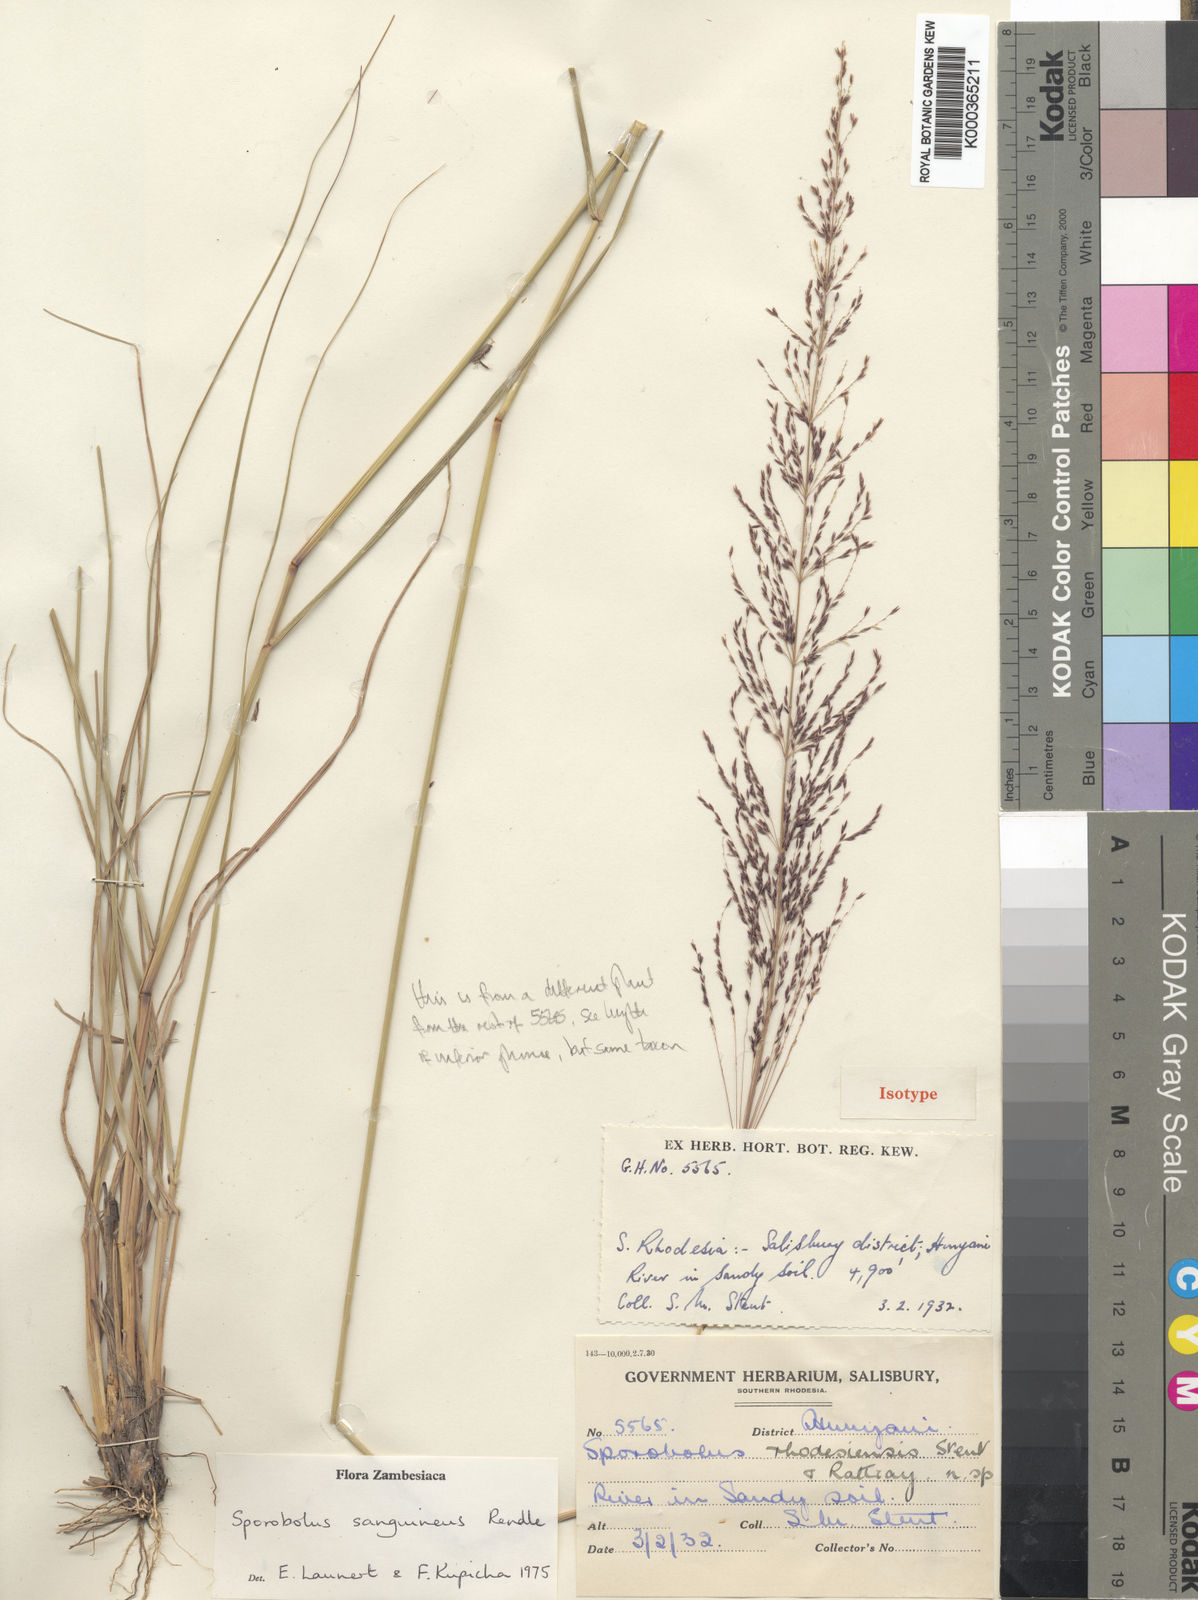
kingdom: Plantae
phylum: Tracheophyta
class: Liliopsida
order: Poales
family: Poaceae
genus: Sporobolus
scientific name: Sporobolus sanguineus
